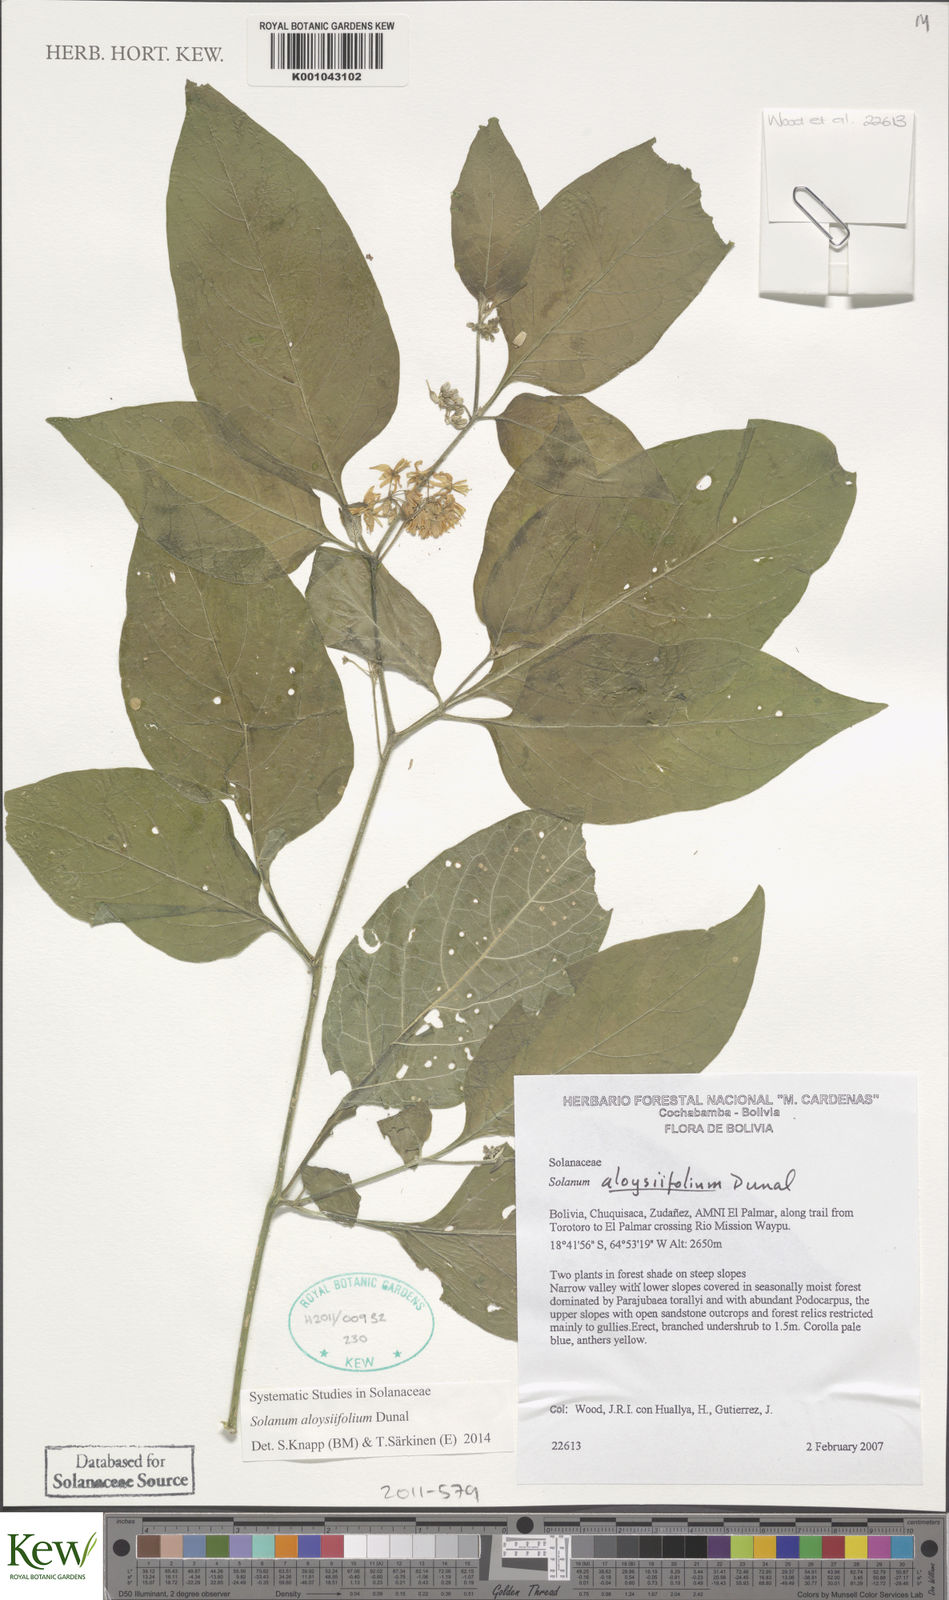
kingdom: Plantae
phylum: Tracheophyta
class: Magnoliopsida
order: Solanales
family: Solanaceae
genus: Solanum
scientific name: Solanum aloysiifolium
